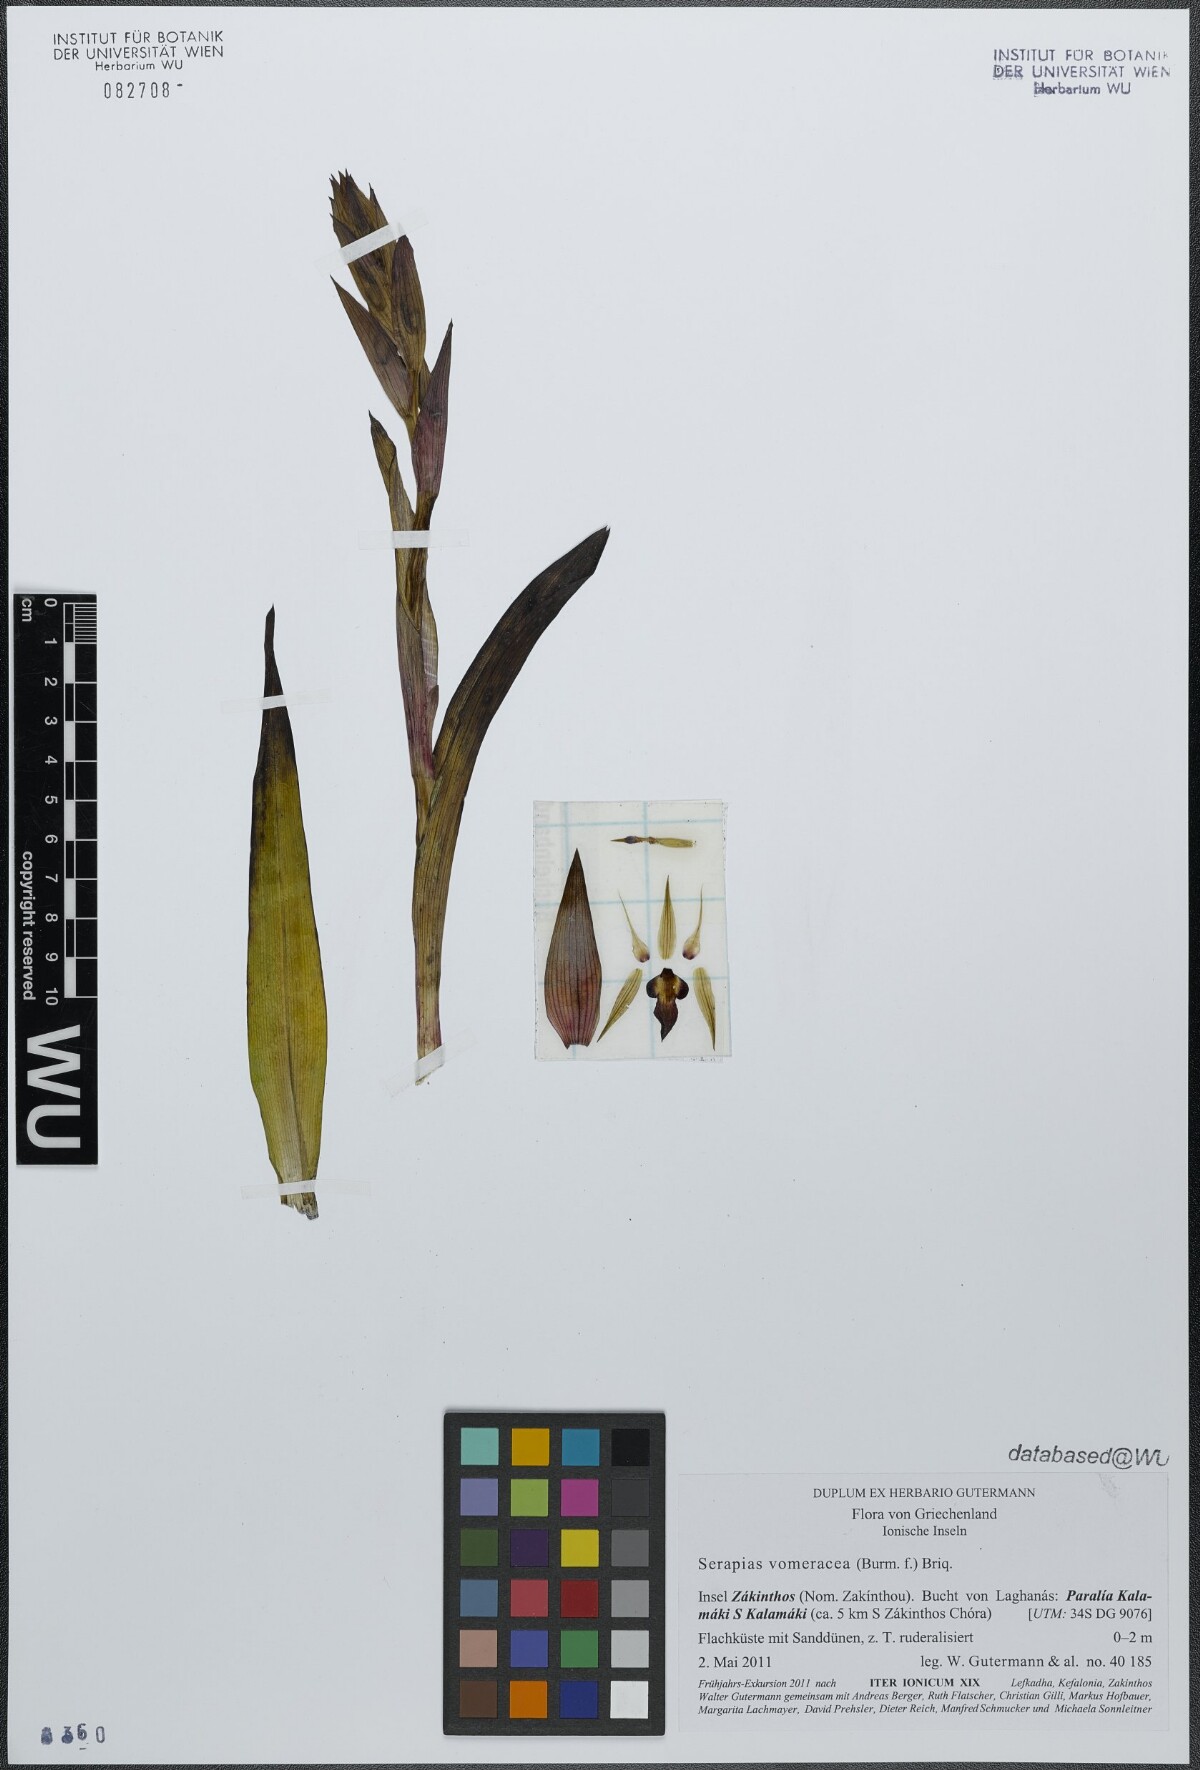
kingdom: Plantae
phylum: Tracheophyta
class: Liliopsida
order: Asparagales
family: Orchidaceae
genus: Serapias
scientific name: Serapias vomeracea
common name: Long-lipped tongue-orchid
